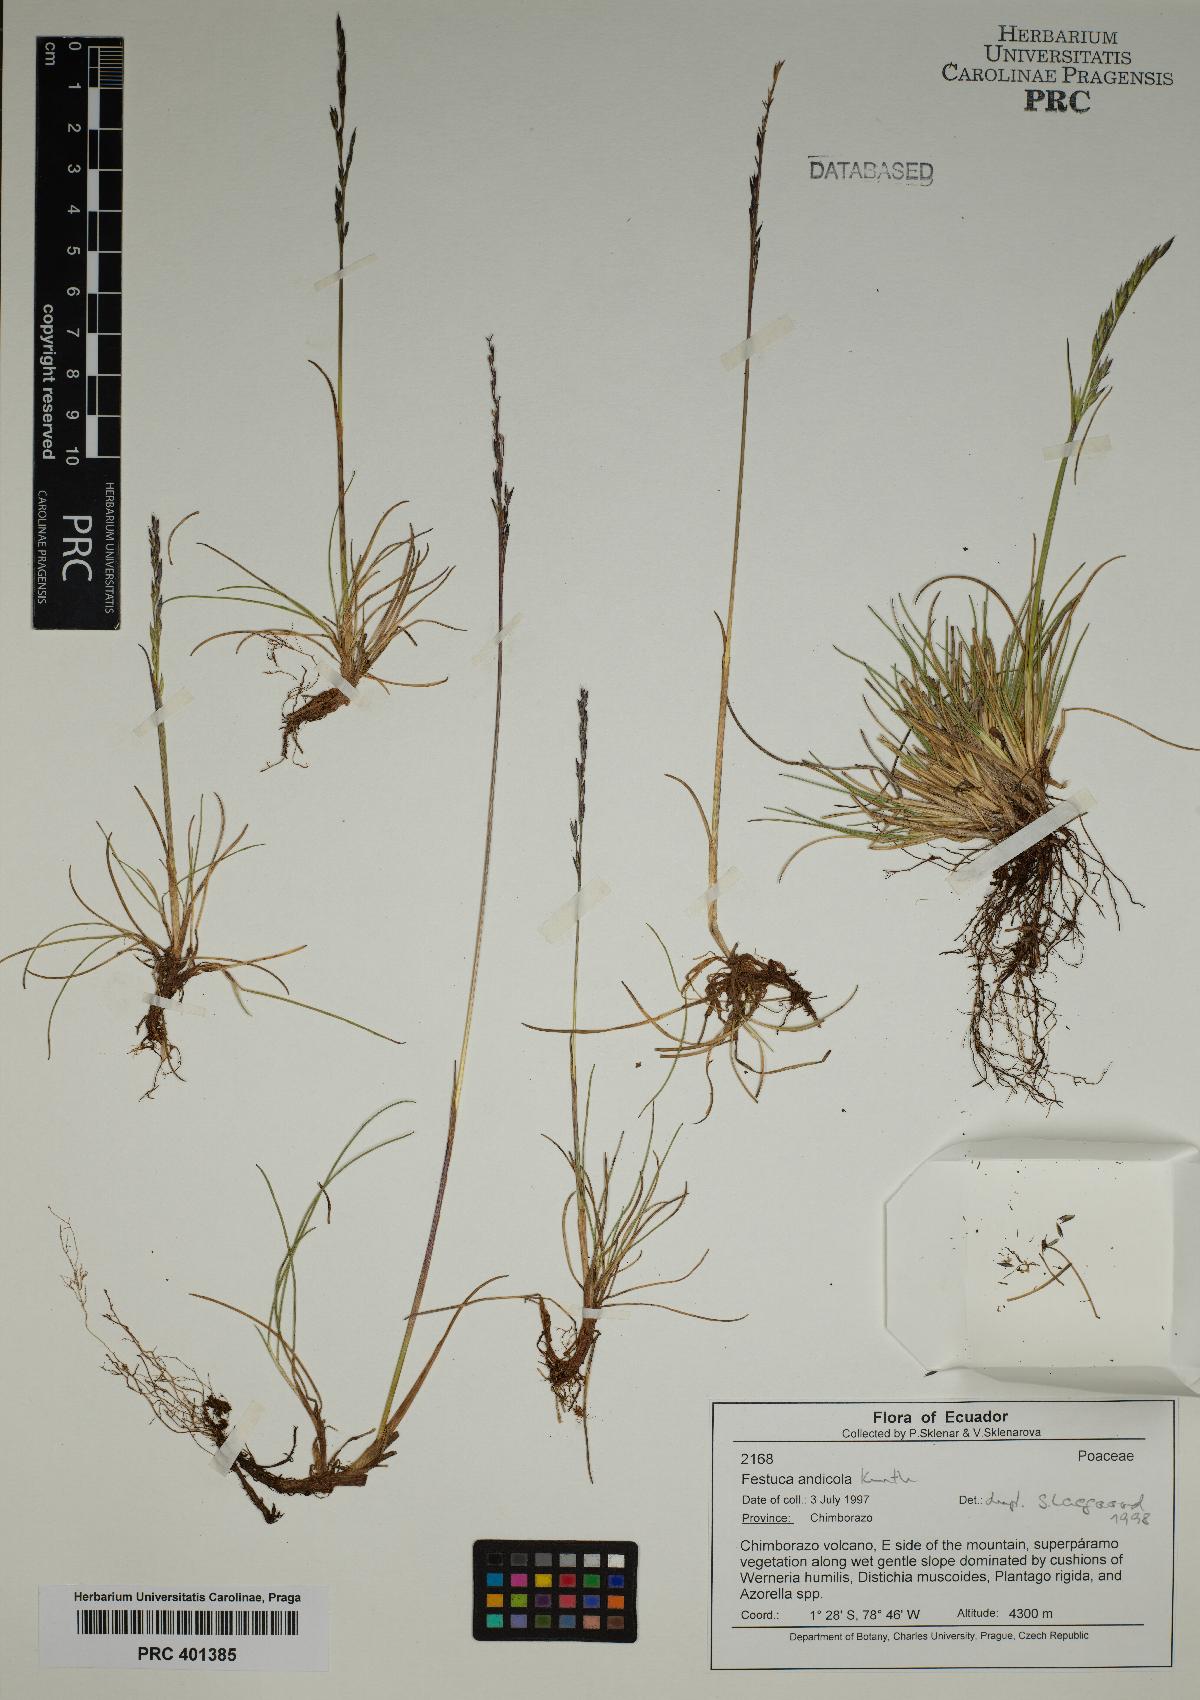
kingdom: Plantae
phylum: Tracheophyta
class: Liliopsida
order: Poales
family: Poaceae
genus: Festuca
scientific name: Festuca andicola
